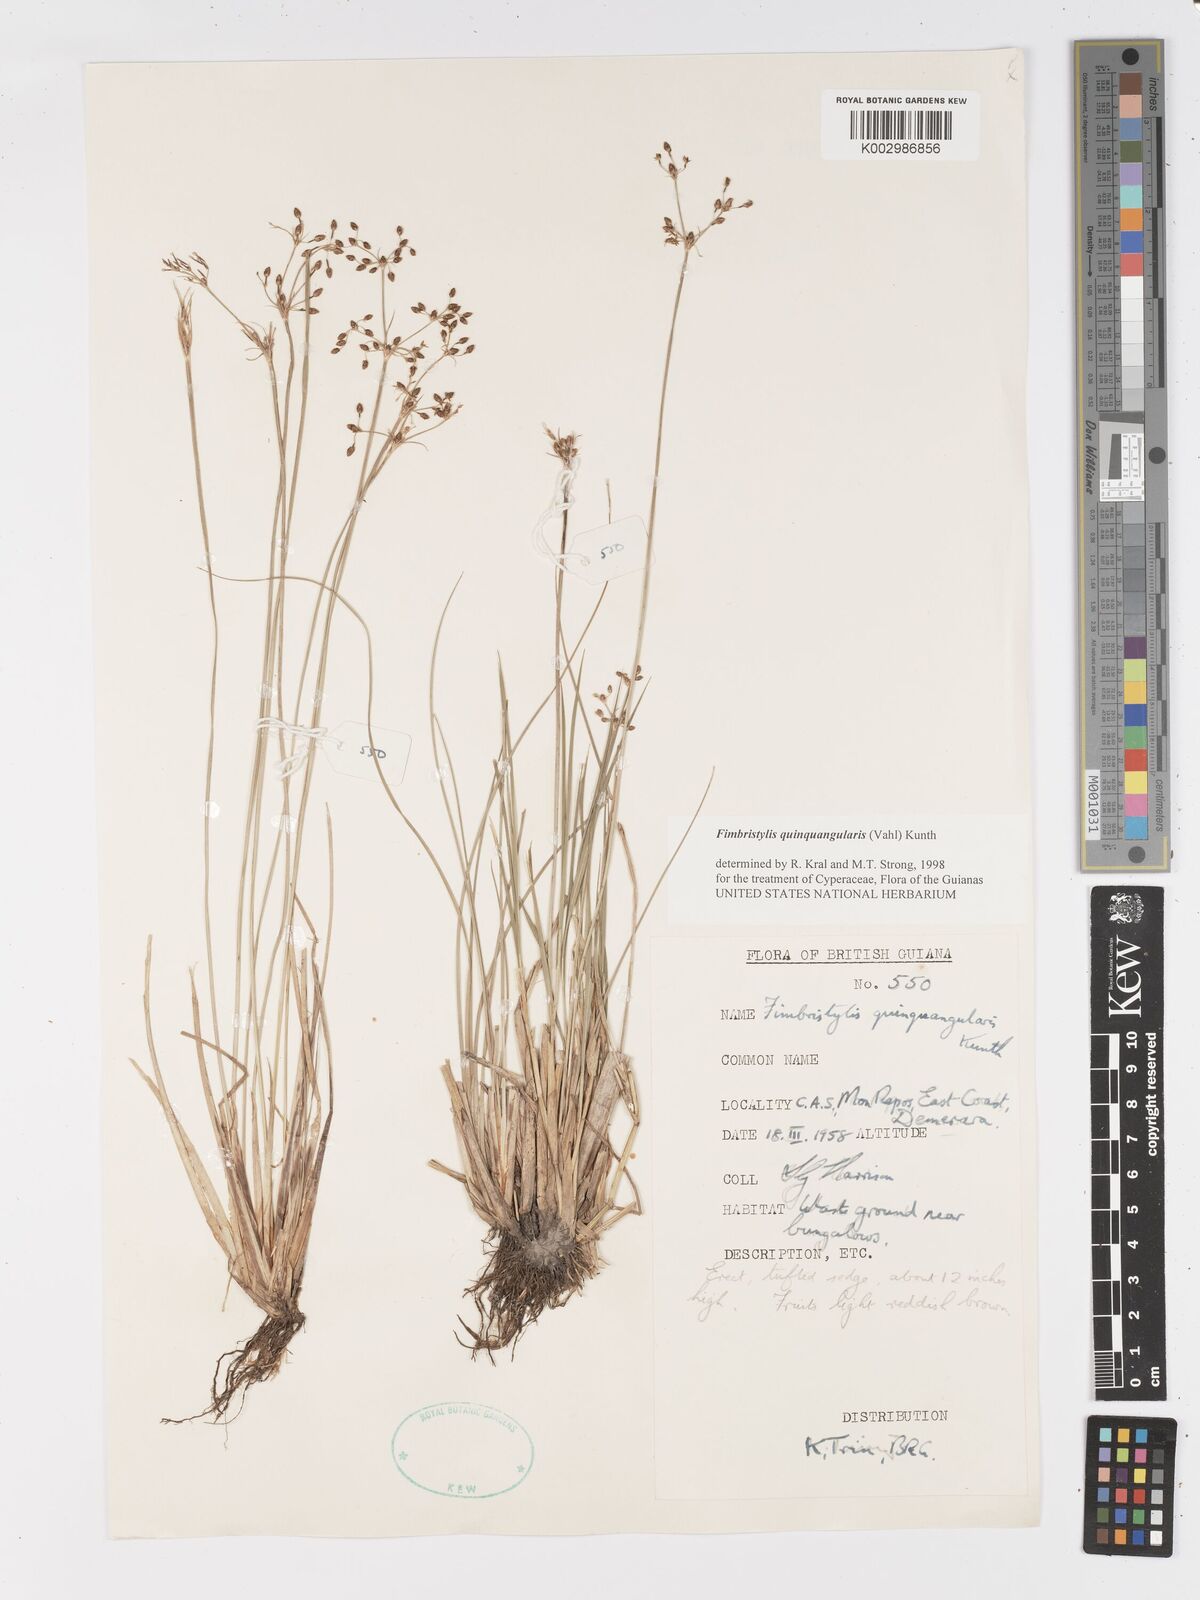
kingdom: Plantae
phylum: Tracheophyta
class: Liliopsida
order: Poales
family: Cyperaceae
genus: Fimbristylis
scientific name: Fimbristylis quinquangularis
